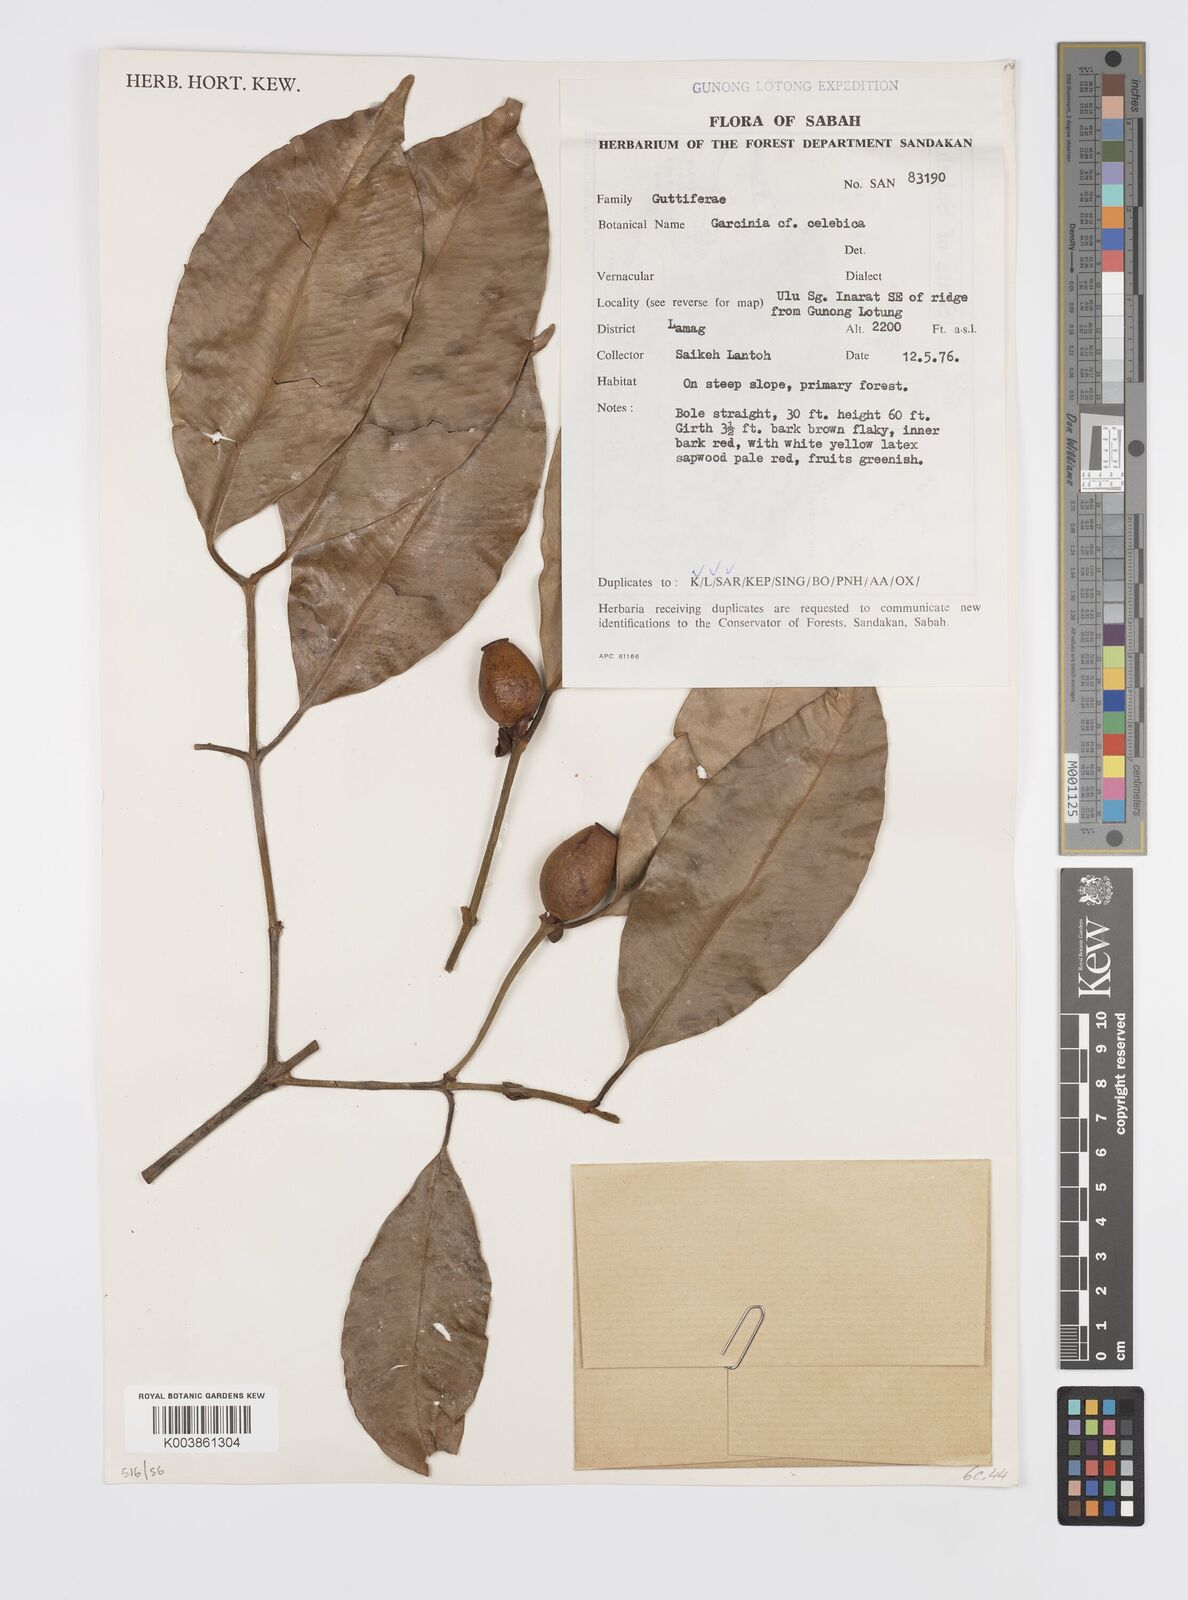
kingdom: Plantae
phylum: Tracheophyta
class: Magnoliopsida
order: Malpighiales
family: Clusiaceae
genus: Garcinia
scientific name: Garcinia sangudsangud
